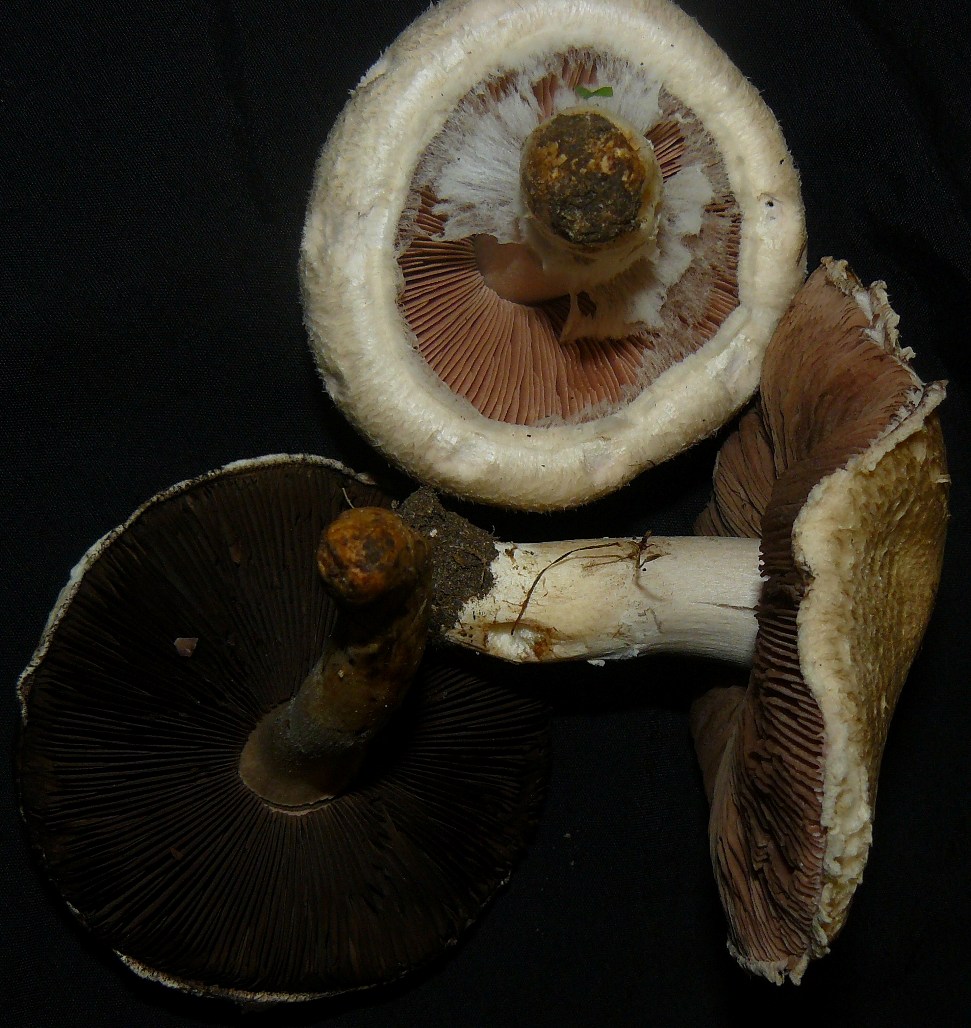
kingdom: Fungi
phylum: Basidiomycota
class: Agaricomycetes
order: Agaricales
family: Agaricaceae
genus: Agaricus
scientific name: Agaricus campestris
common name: mark-champignon
